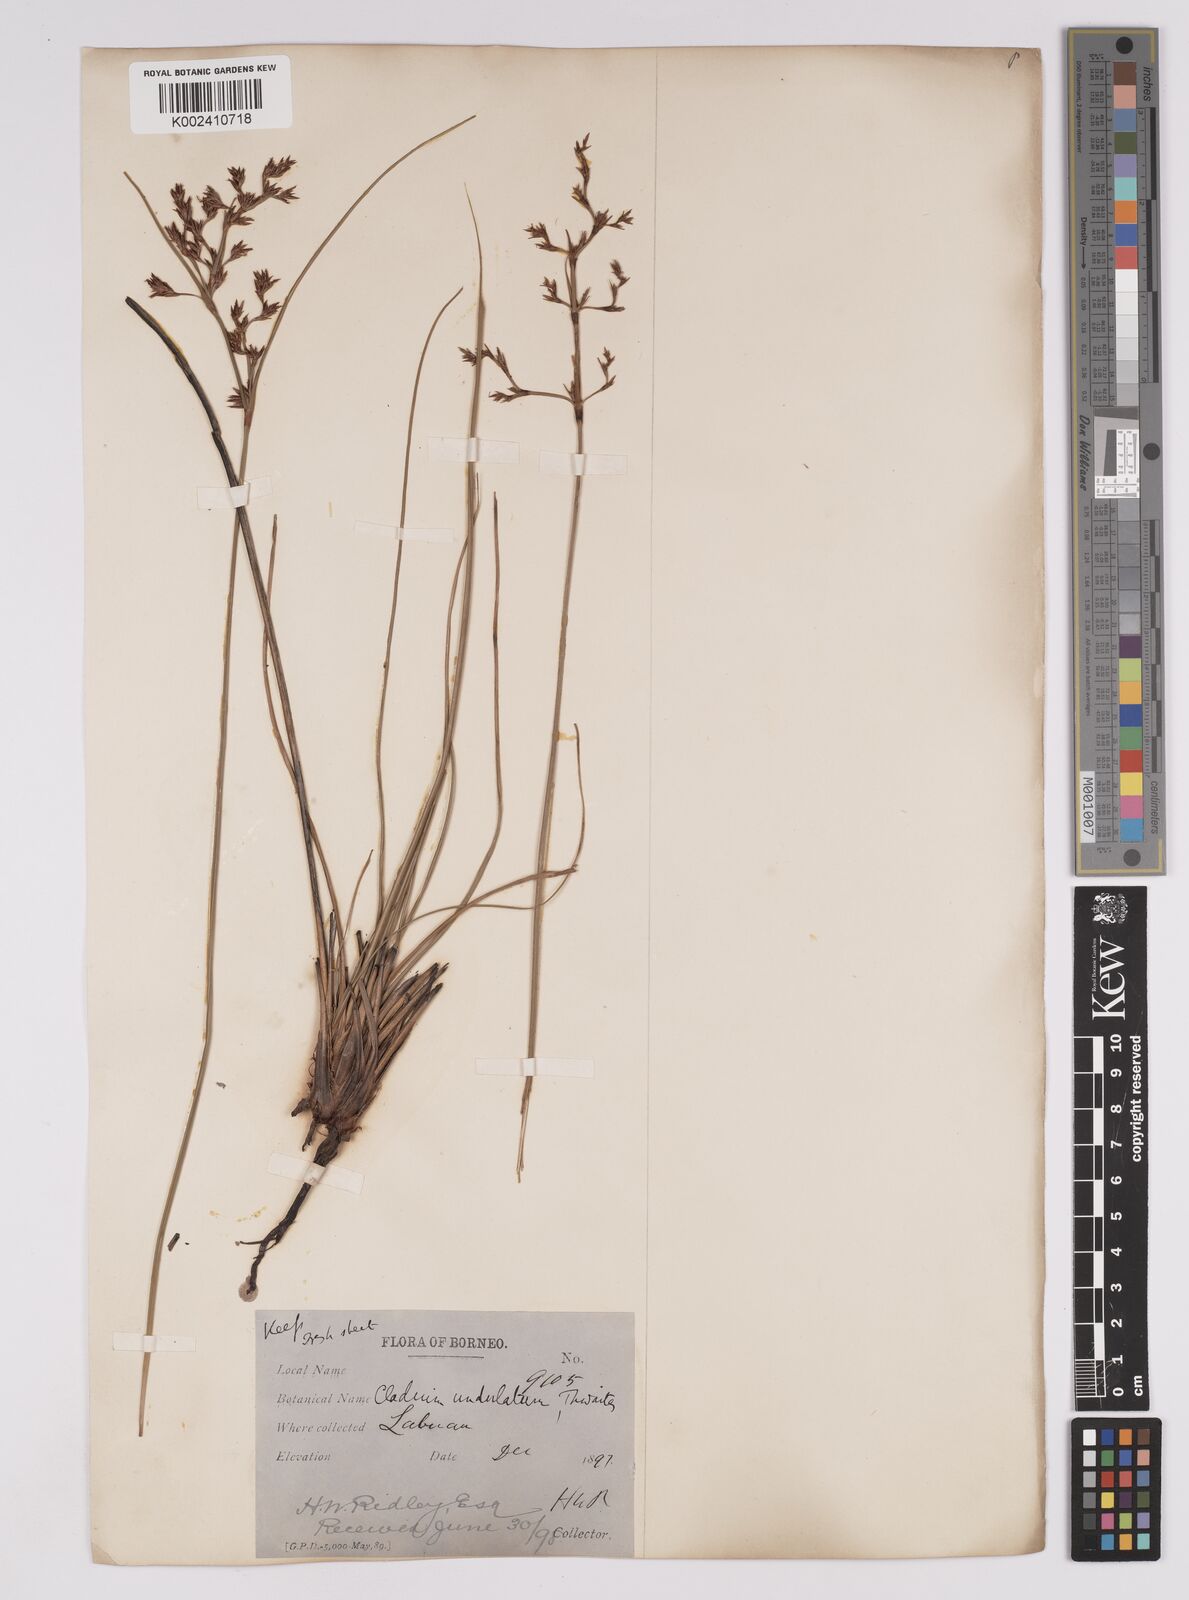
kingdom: Plantae
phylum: Tracheophyta
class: Liliopsida
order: Poales
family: Cyperaceae
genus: Anthelepis
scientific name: Anthelepis undulata
